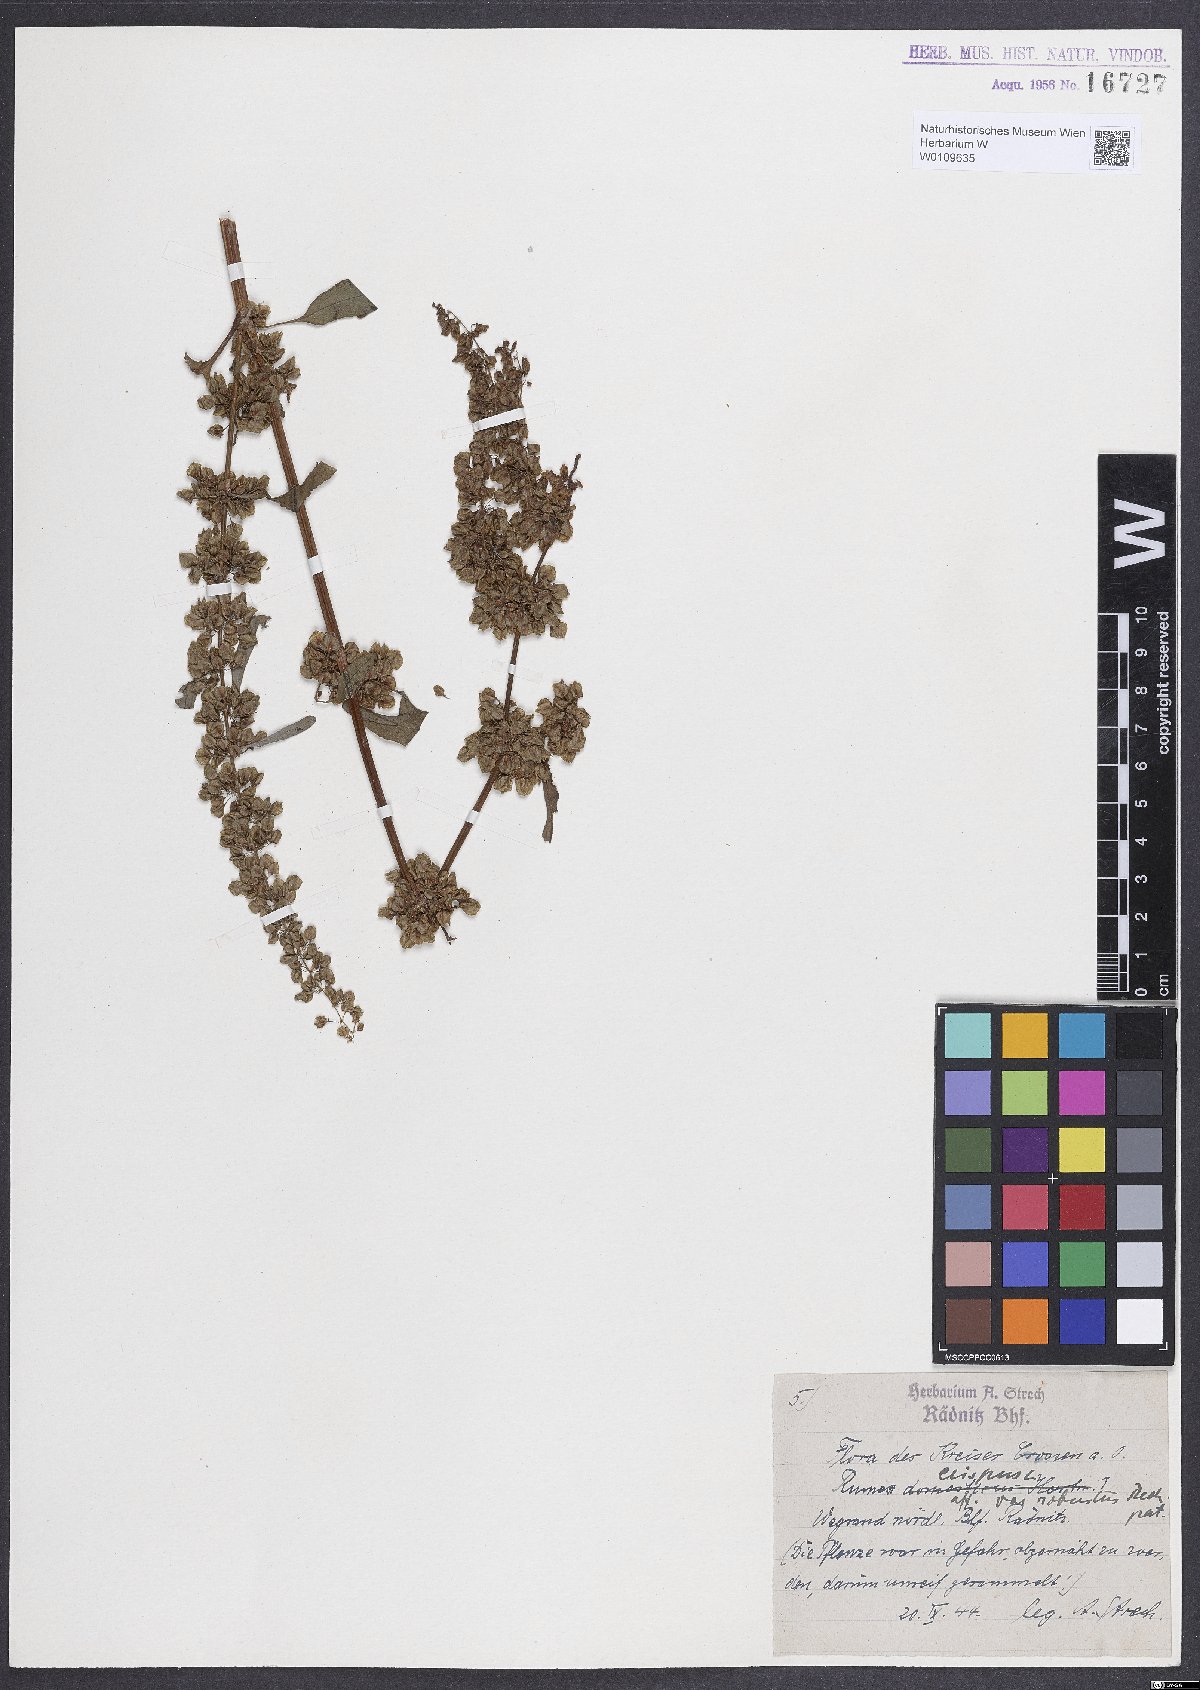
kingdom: Plantae
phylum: Tracheophyta
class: Magnoliopsida
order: Caryophyllales
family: Polygonaceae
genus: Rumex
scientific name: Rumex crispus
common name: Curled dock
